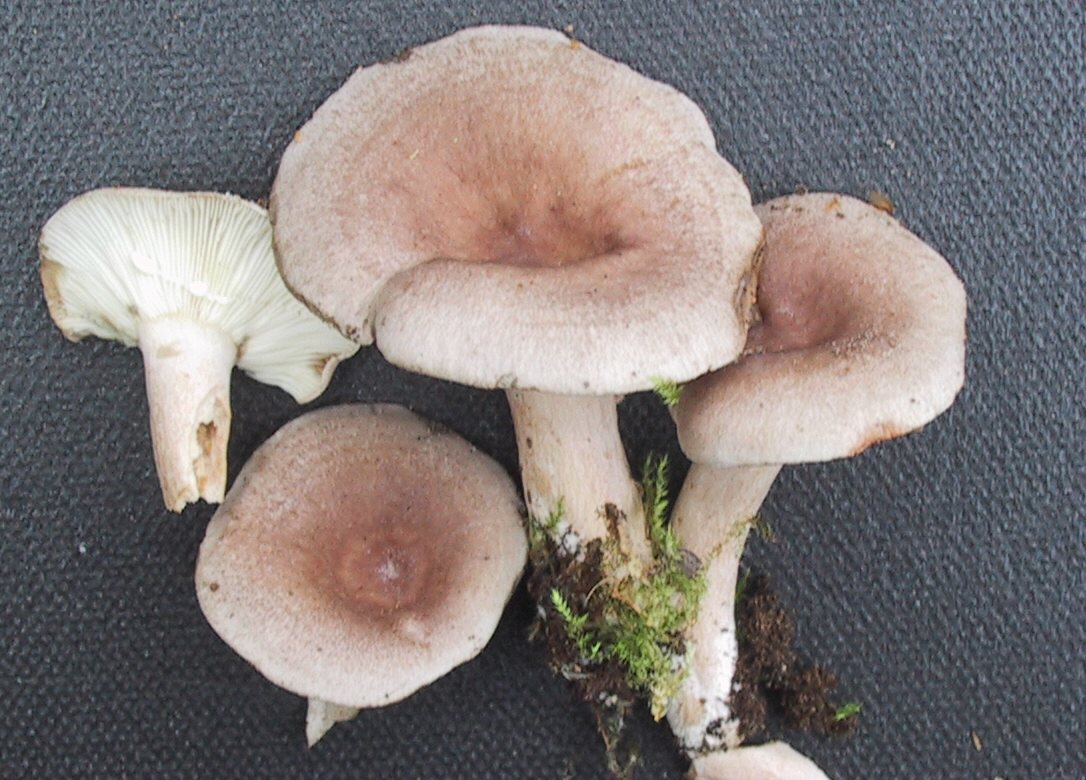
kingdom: Fungi
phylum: Basidiomycota
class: Agaricomycetes
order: Russulales
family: Russulaceae
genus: Lactarius
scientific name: Lactarius vietus
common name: violetgrå mælkehat
